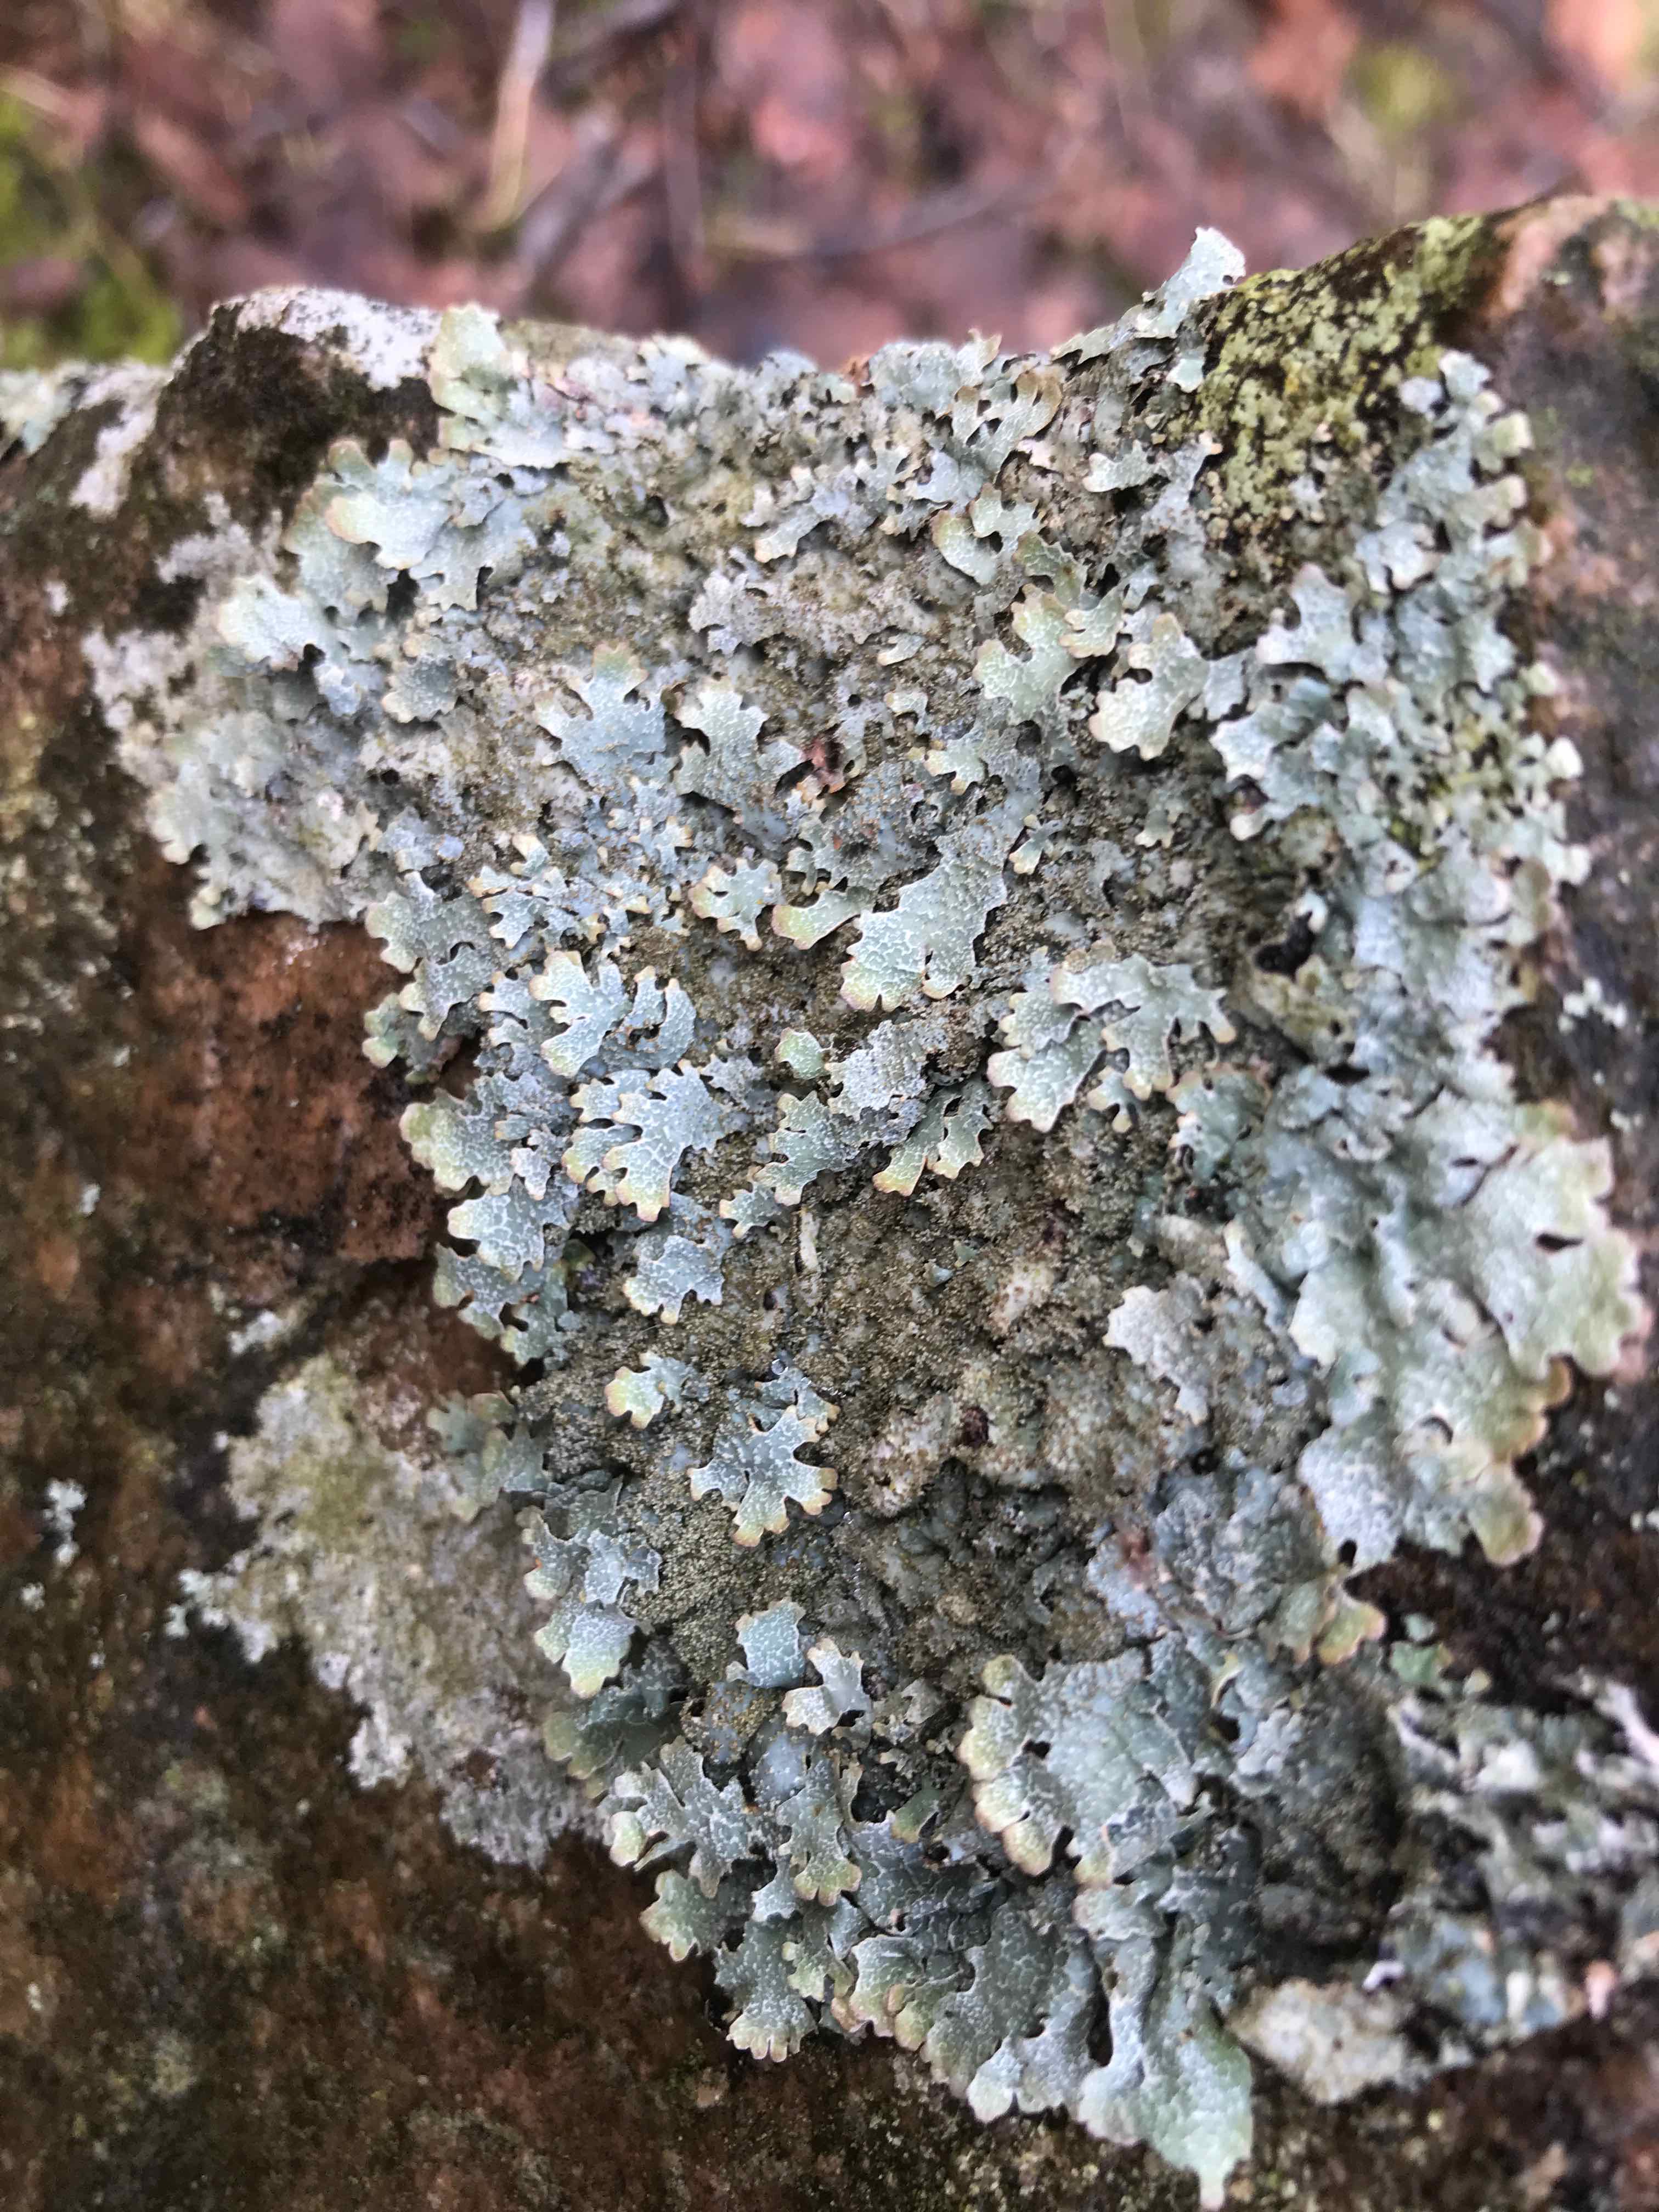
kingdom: Fungi
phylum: Ascomycota
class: Lecanoromycetes
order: Lecanorales
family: Parmeliaceae
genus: Parmelia
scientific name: Parmelia saxatilis
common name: farve-skållav
